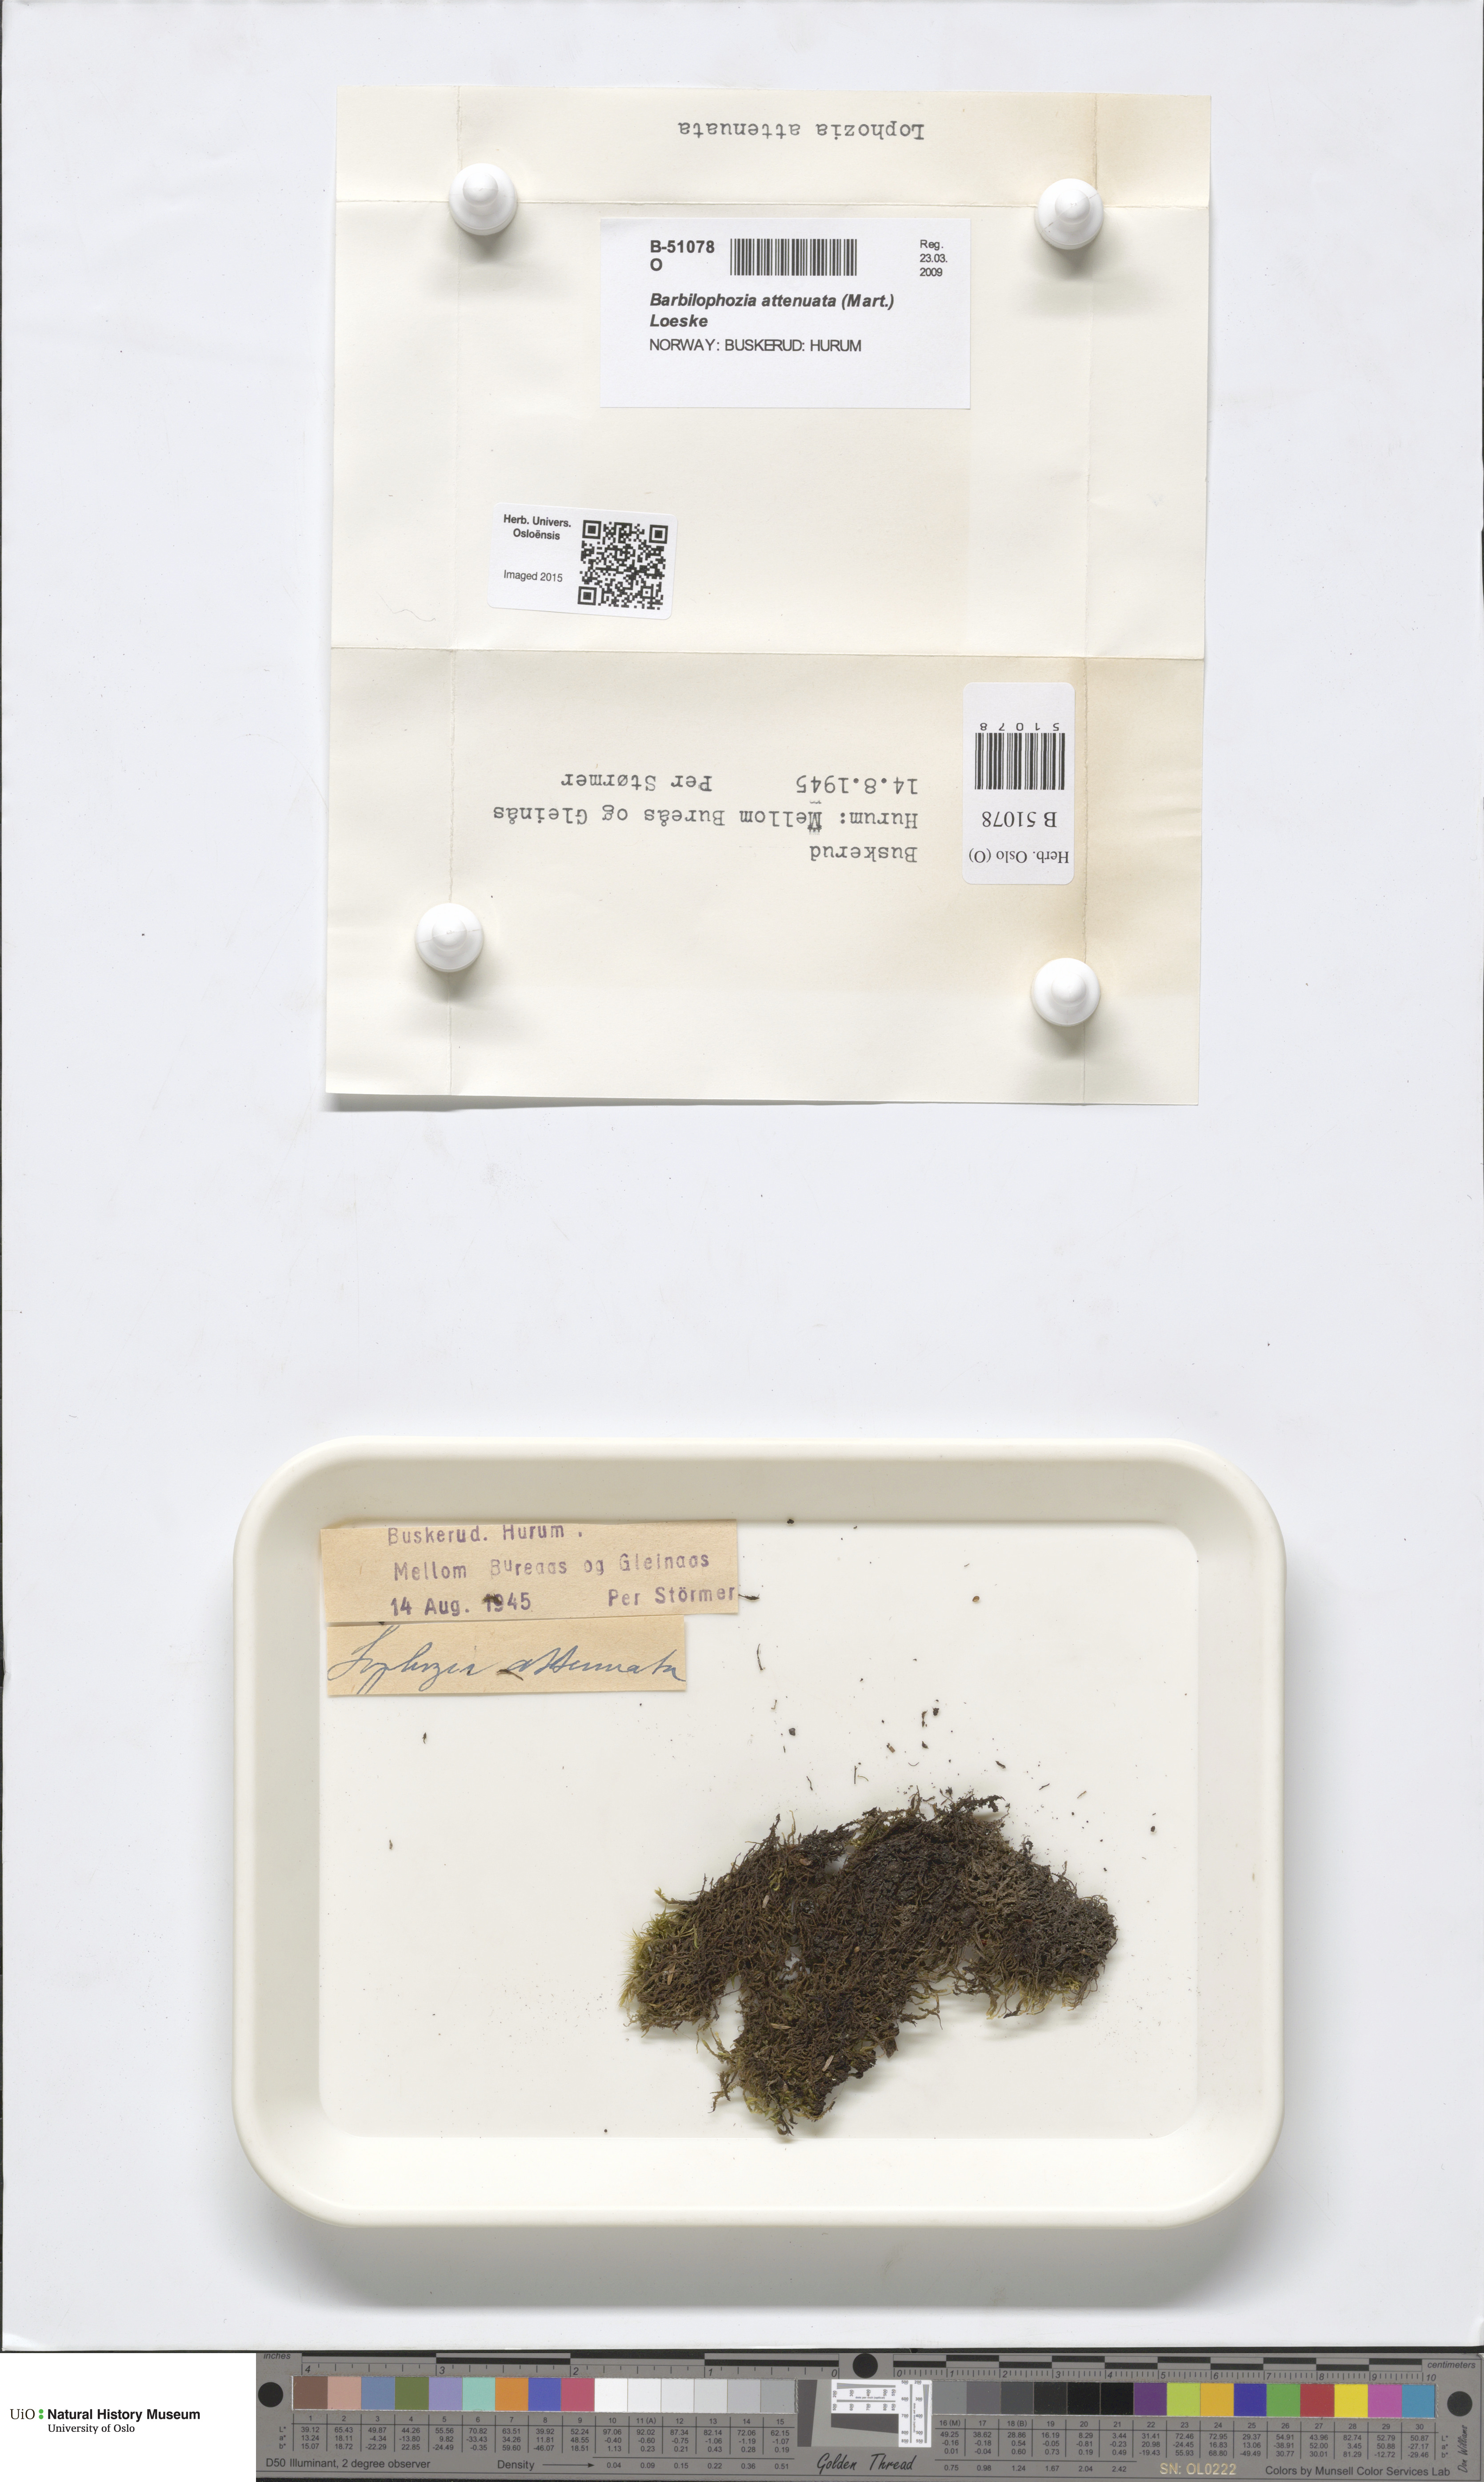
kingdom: Plantae
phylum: Marchantiophyta
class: Jungermanniopsida
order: Jungermanniales
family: Anastrophyllaceae
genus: Neoorthocaulis
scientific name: Neoorthocaulis attenuatus
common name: Trunk pawwort
